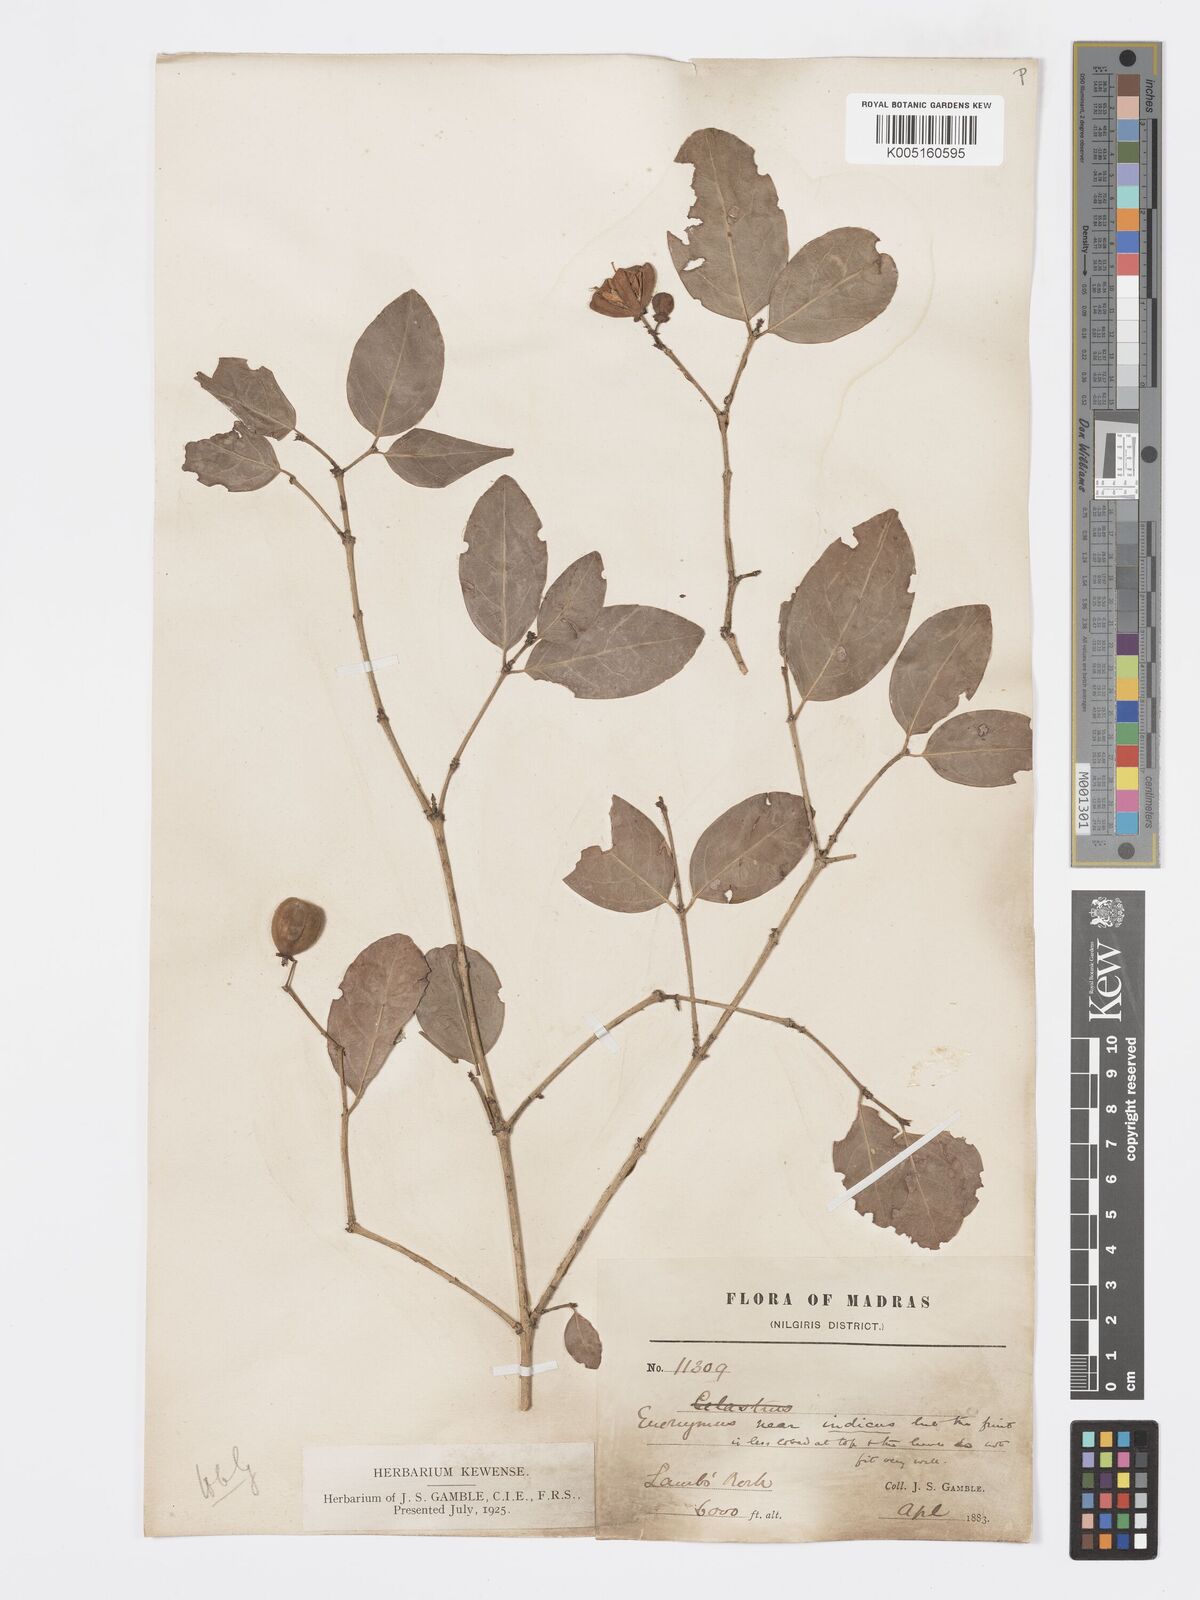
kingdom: Plantae
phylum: Tracheophyta
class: Magnoliopsida
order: Celastrales
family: Celastraceae
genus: Euonymus
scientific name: Euonymus crenulatus
